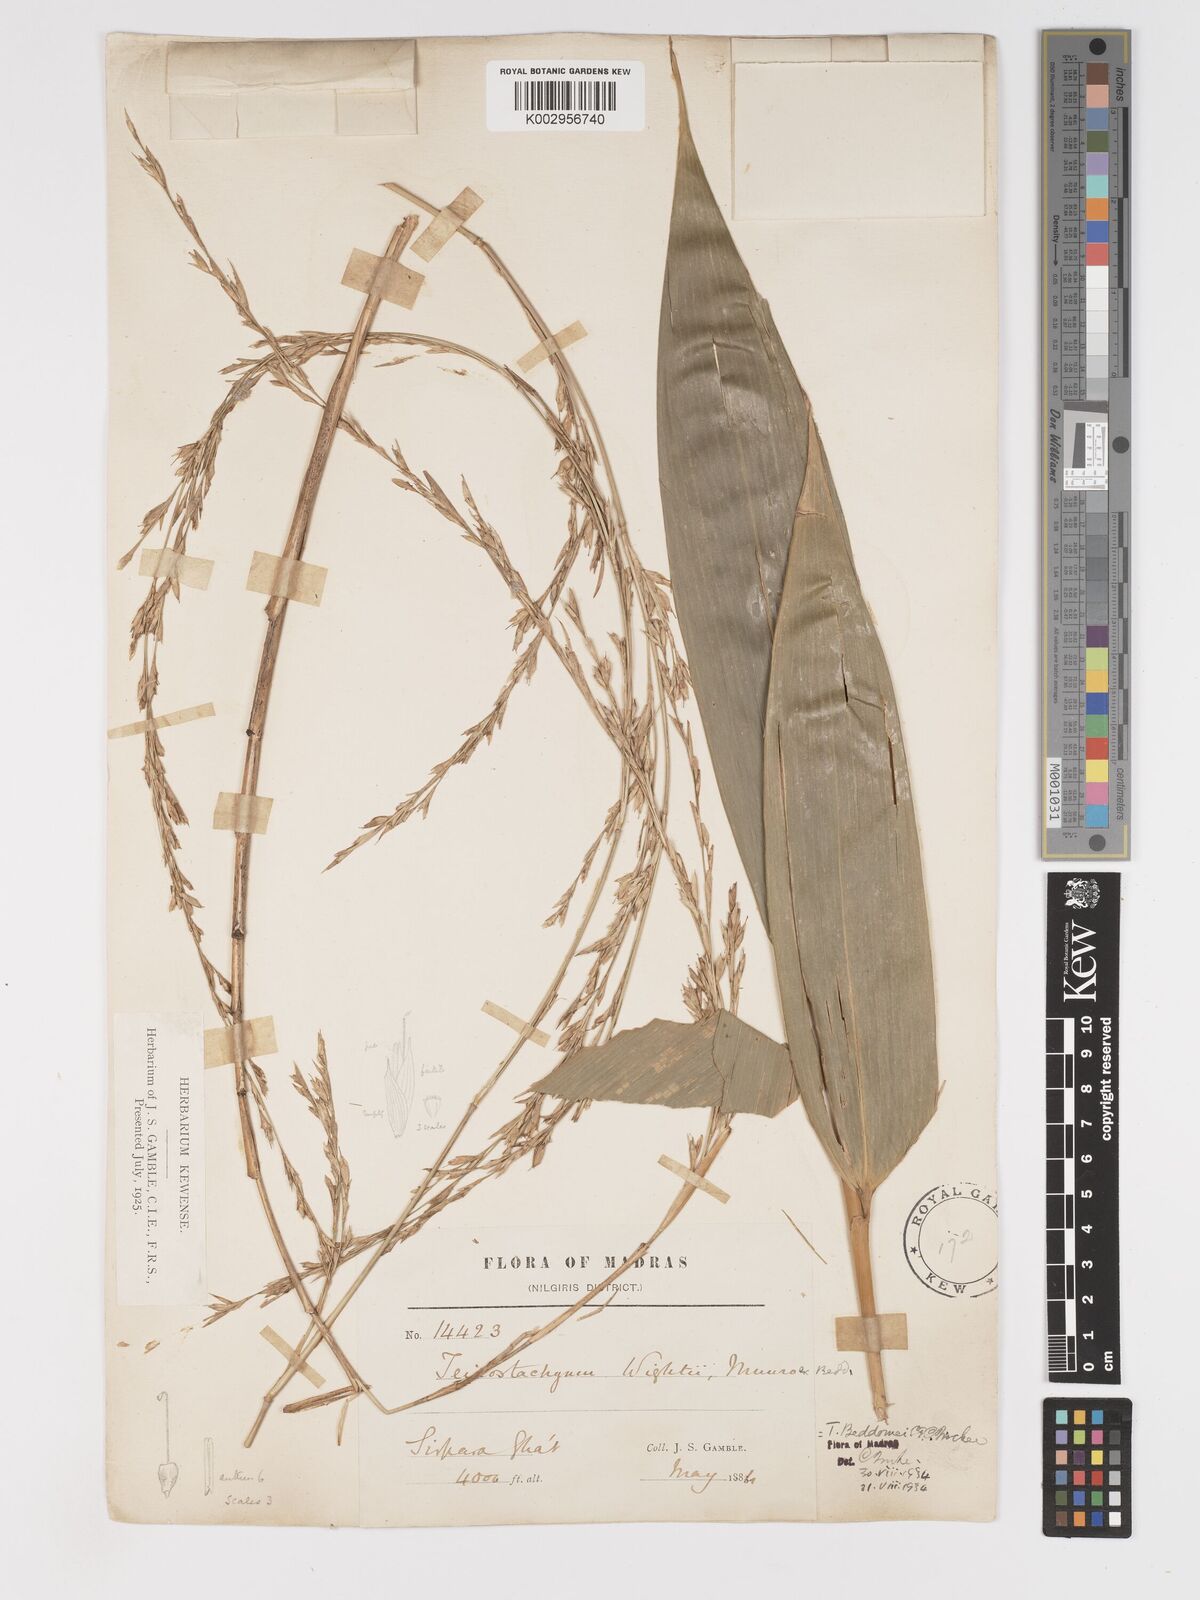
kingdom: Plantae
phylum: Tracheophyta
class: Liliopsida
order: Poales
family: Poaceae
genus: Ochlandra
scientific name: Ochlandra wightii
